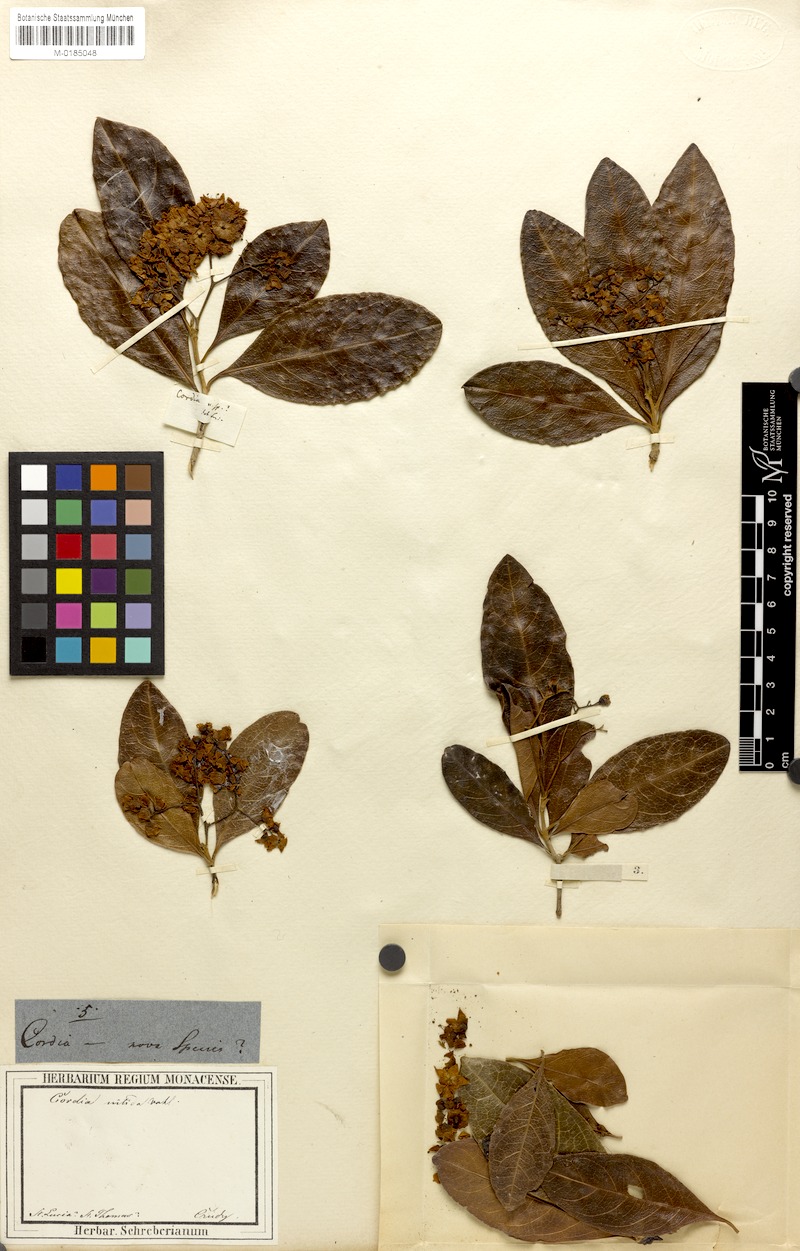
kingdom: Plantae
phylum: Tracheophyta
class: Magnoliopsida
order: Boraginales
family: Cordiaceae
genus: Cordia
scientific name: Cordia laevigata
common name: Clam cherry
